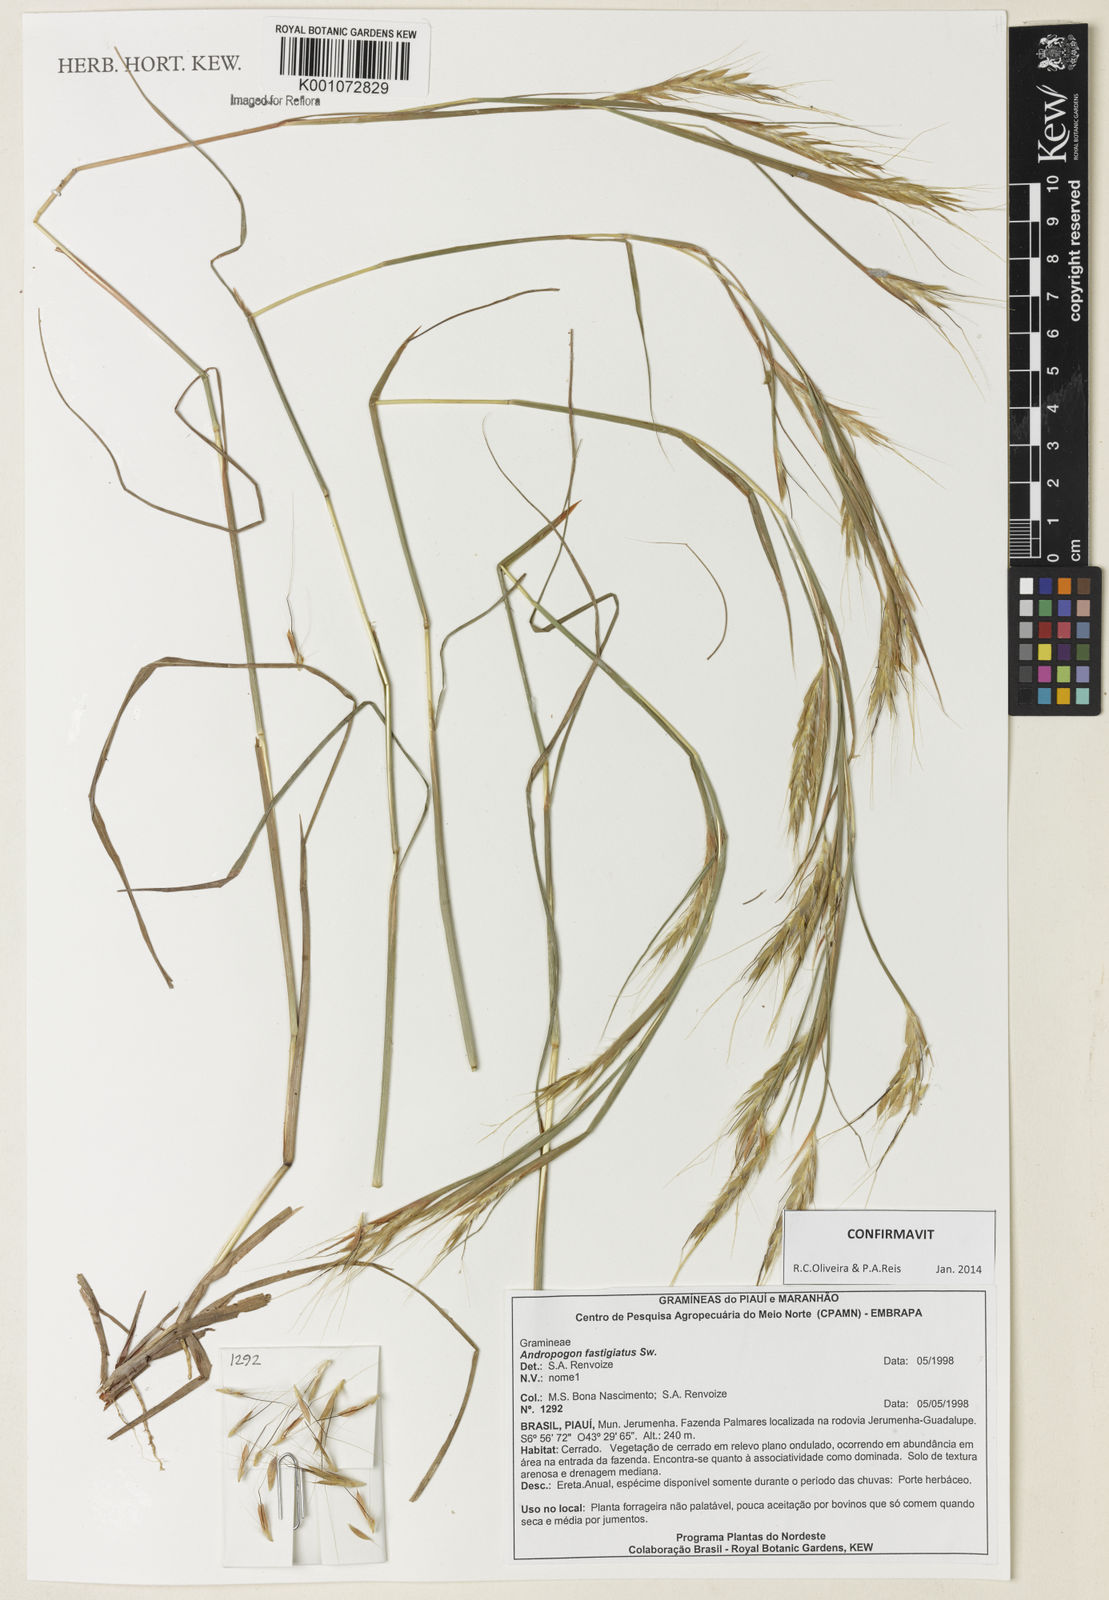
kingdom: Plantae
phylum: Tracheophyta
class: Liliopsida
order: Poales
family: Poaceae
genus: Diectomis
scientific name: Diectomis fastigiata
